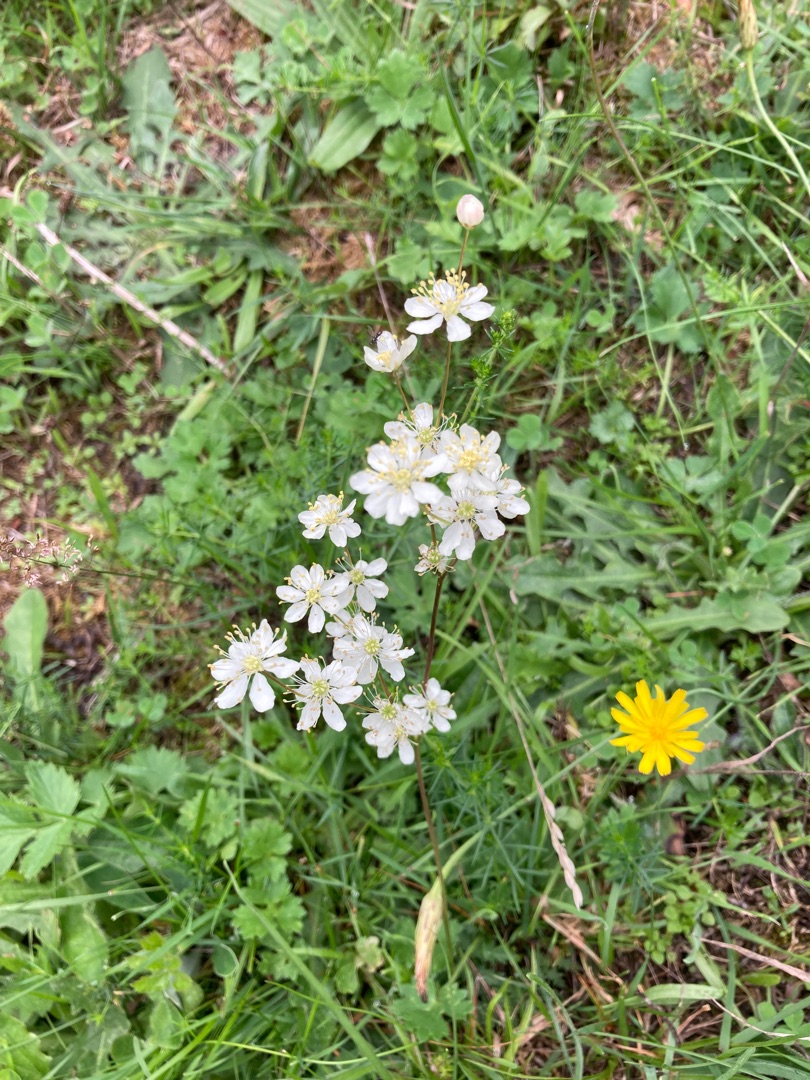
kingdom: Plantae
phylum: Tracheophyta
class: Magnoliopsida
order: Rosales
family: Rosaceae
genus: Filipendula
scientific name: Filipendula vulgaris
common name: Knoldet mjødurt
